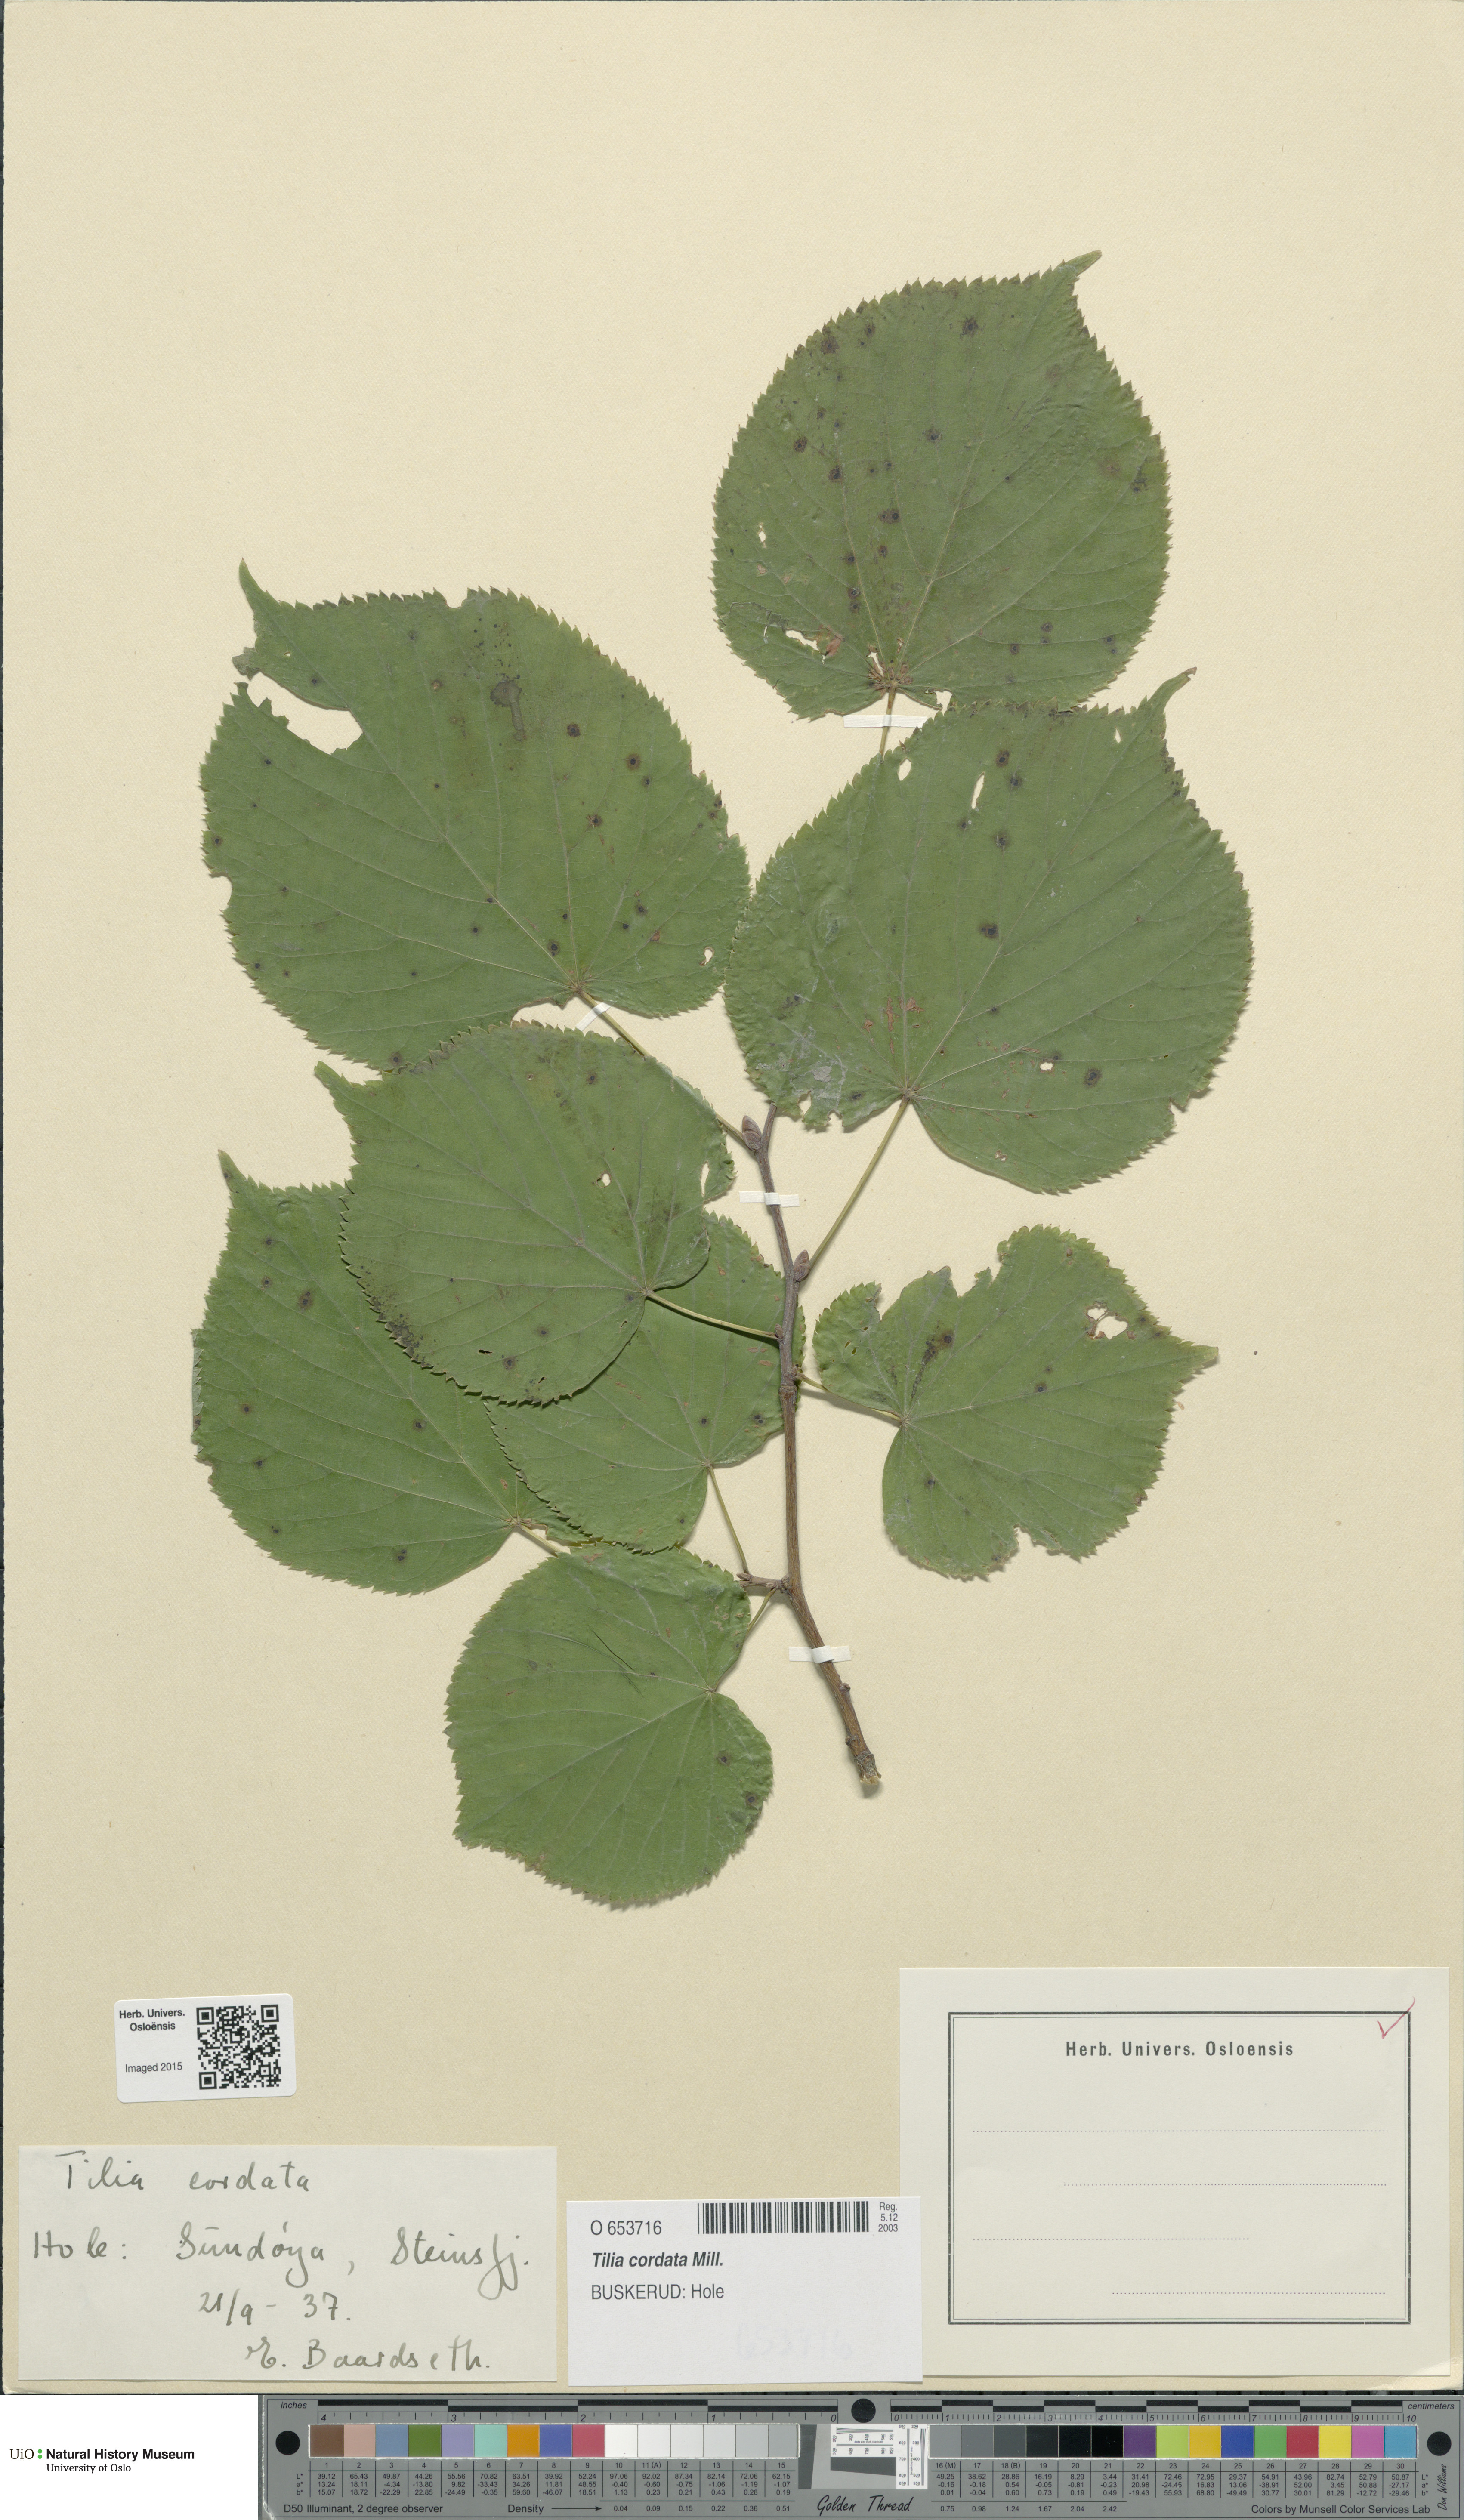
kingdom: Plantae
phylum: Tracheophyta
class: Magnoliopsida
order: Malvales
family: Malvaceae
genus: Tilia
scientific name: Tilia cordata
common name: Small-leaved lime
